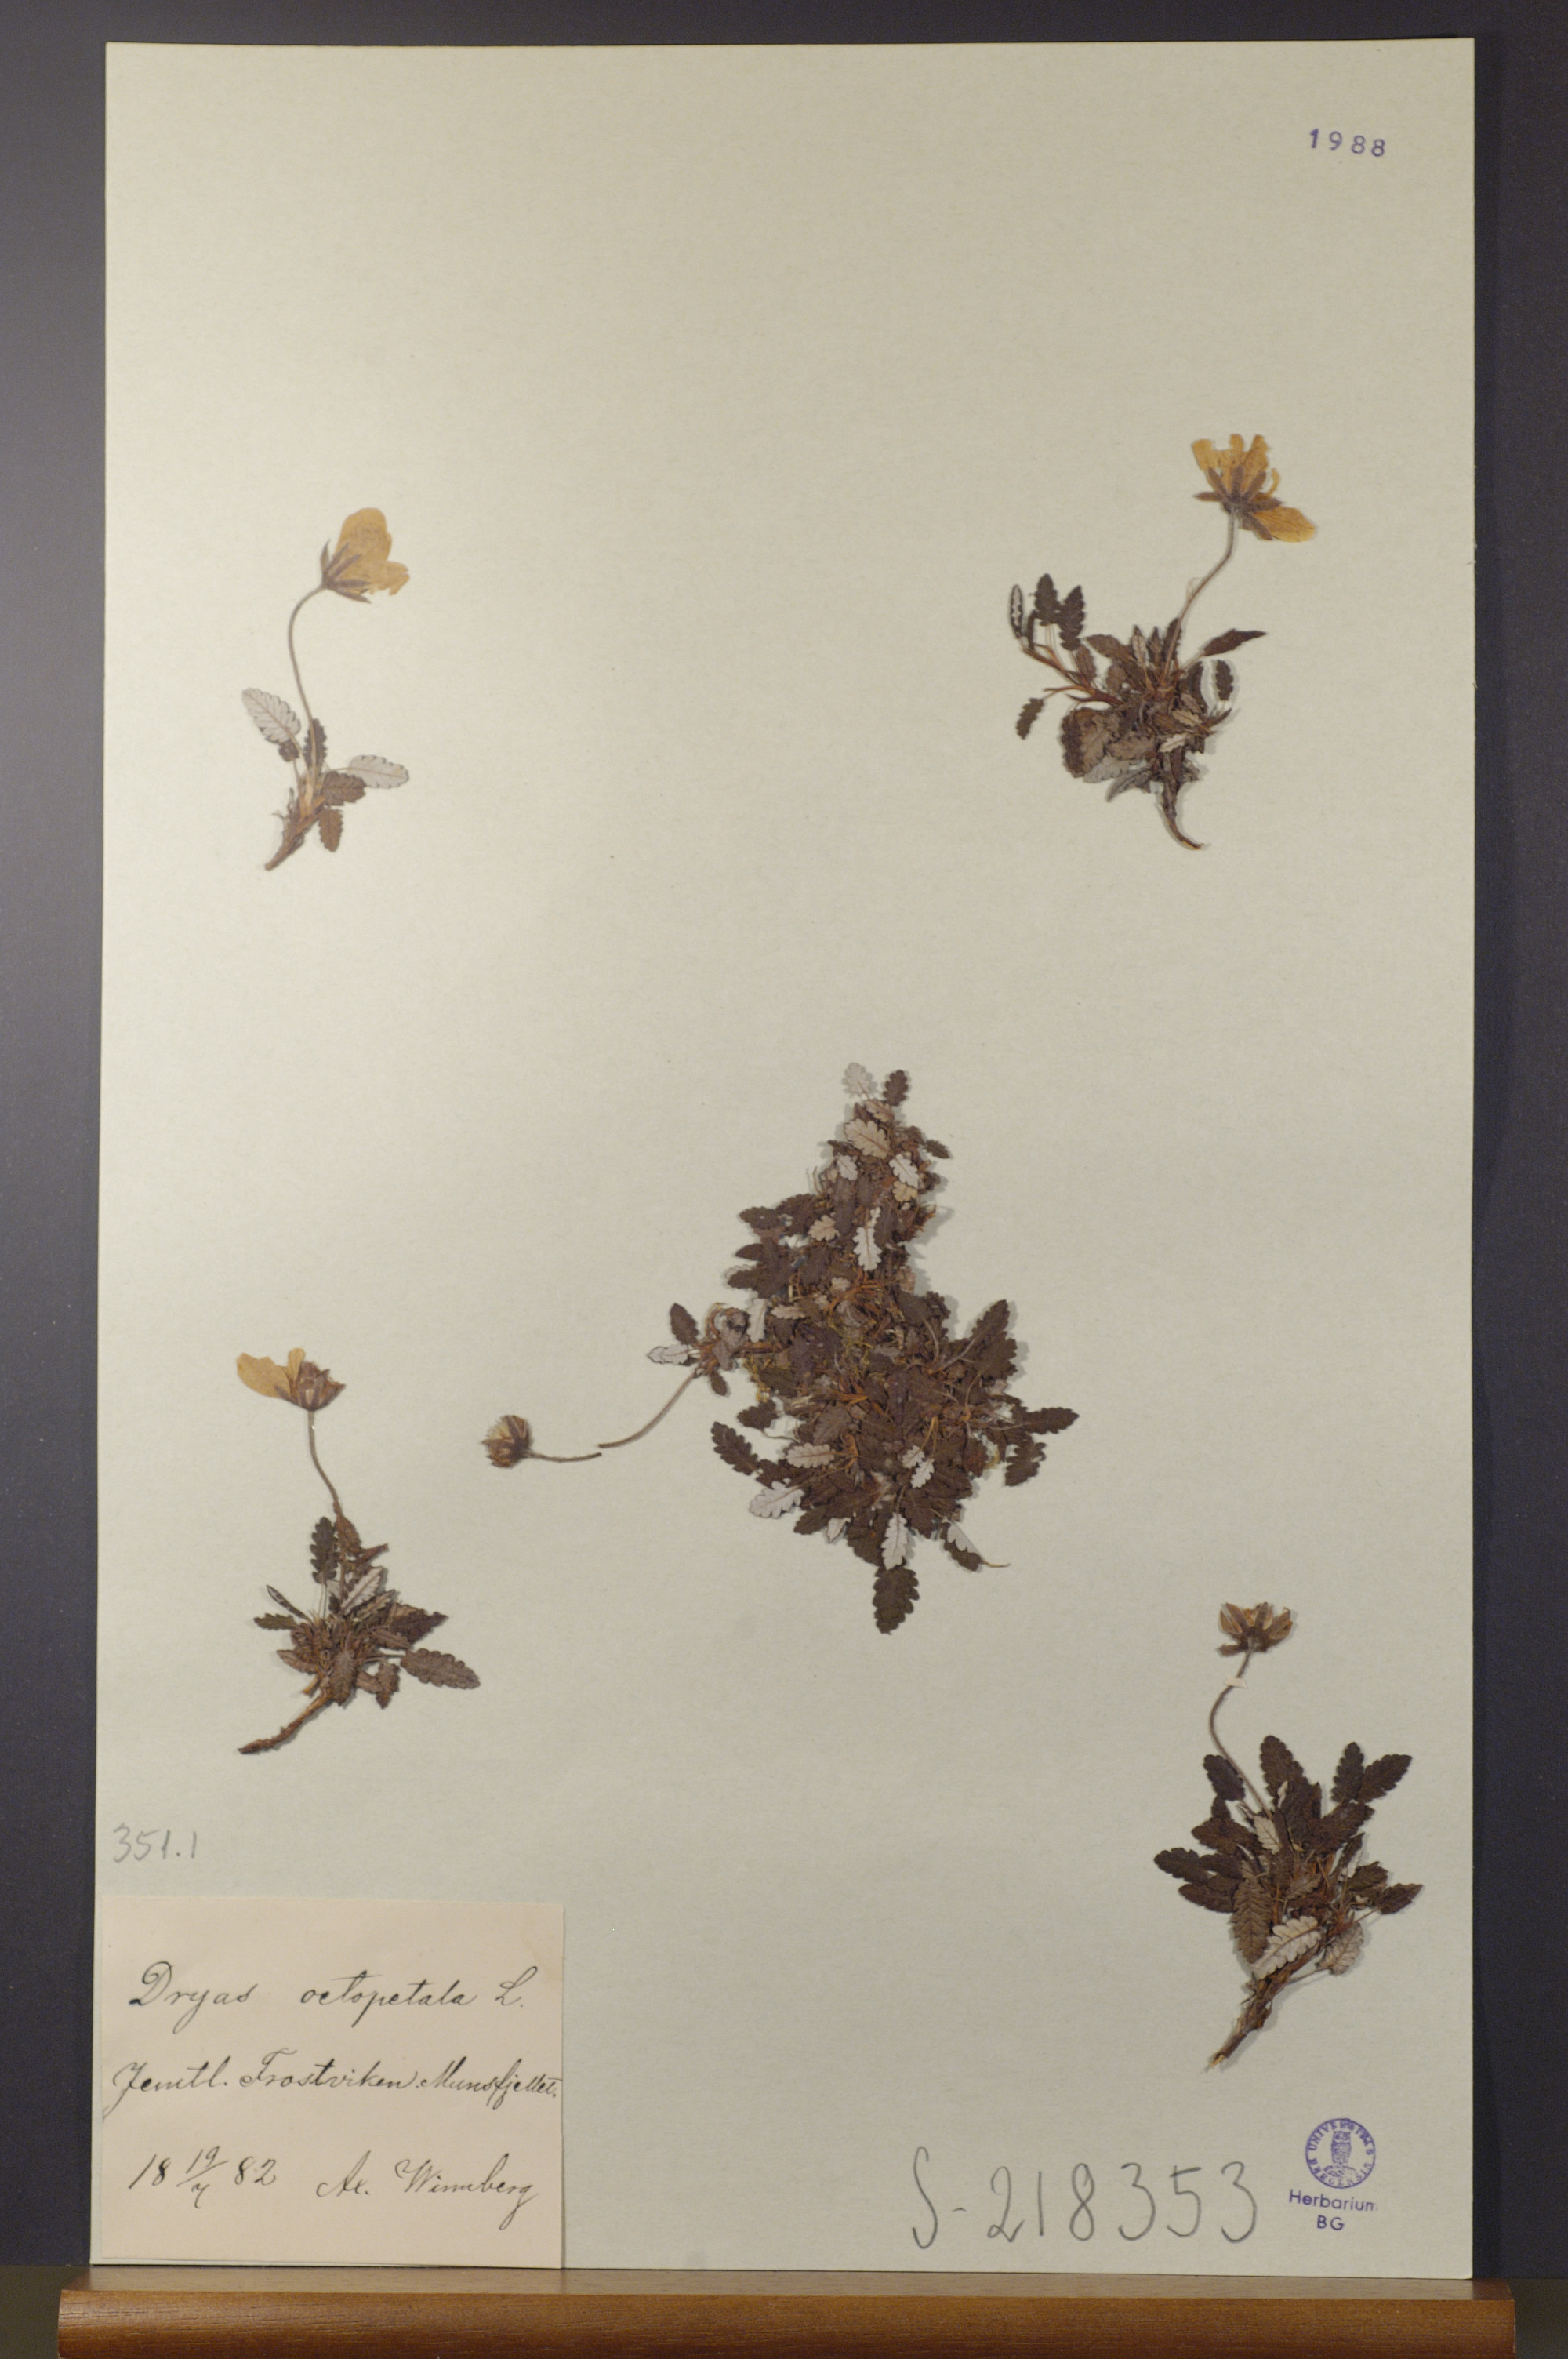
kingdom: Plantae
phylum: Tracheophyta
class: Magnoliopsida
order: Rosales
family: Rosaceae
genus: Dryas
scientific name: Dryas octopetala
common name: Eight-petal mountain-avens
